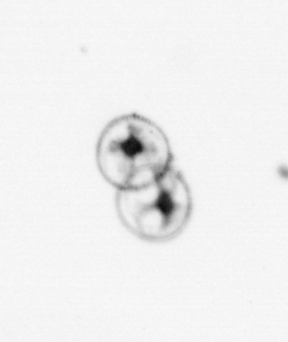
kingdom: Chromista
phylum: Myzozoa
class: Dinophyceae
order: Noctilucales
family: Noctilucaceae
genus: Noctiluca
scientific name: Noctiluca scintillans
